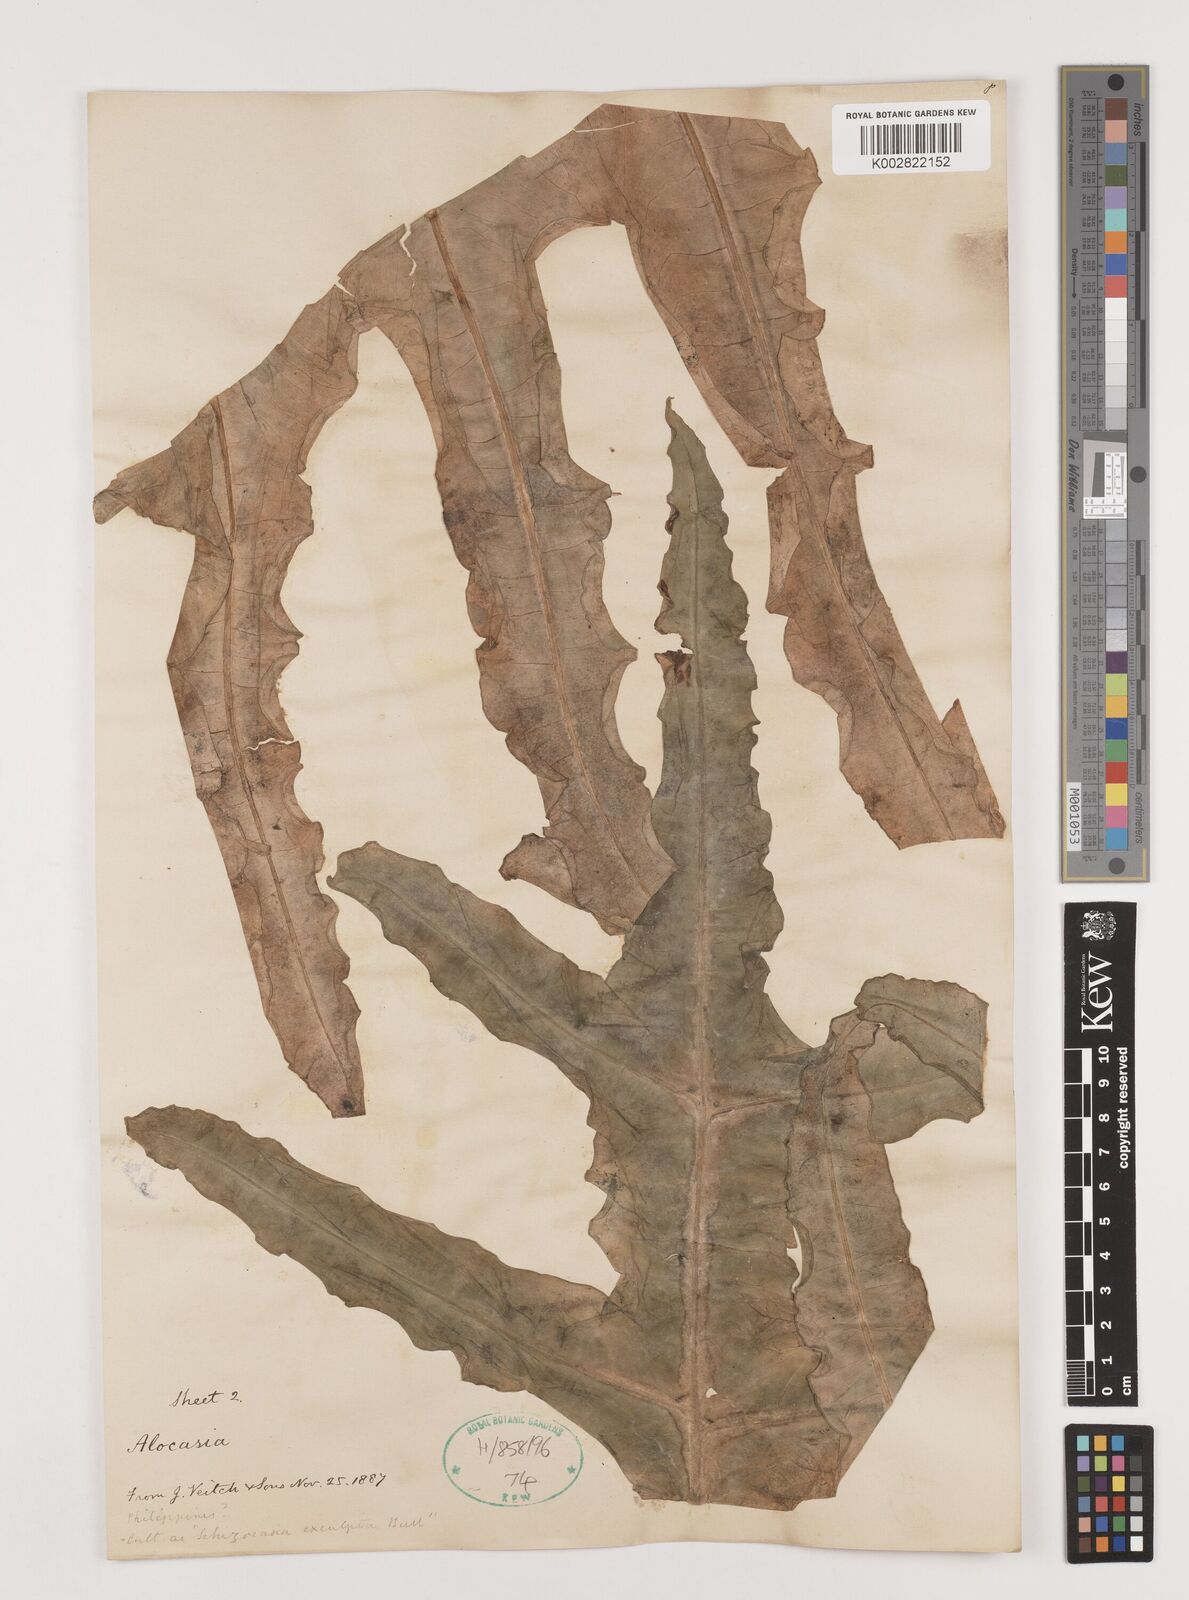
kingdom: Plantae
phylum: Tracheophyta
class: Liliopsida
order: Alismatales
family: Araceae
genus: Alocasia
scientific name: Alocasia portei
